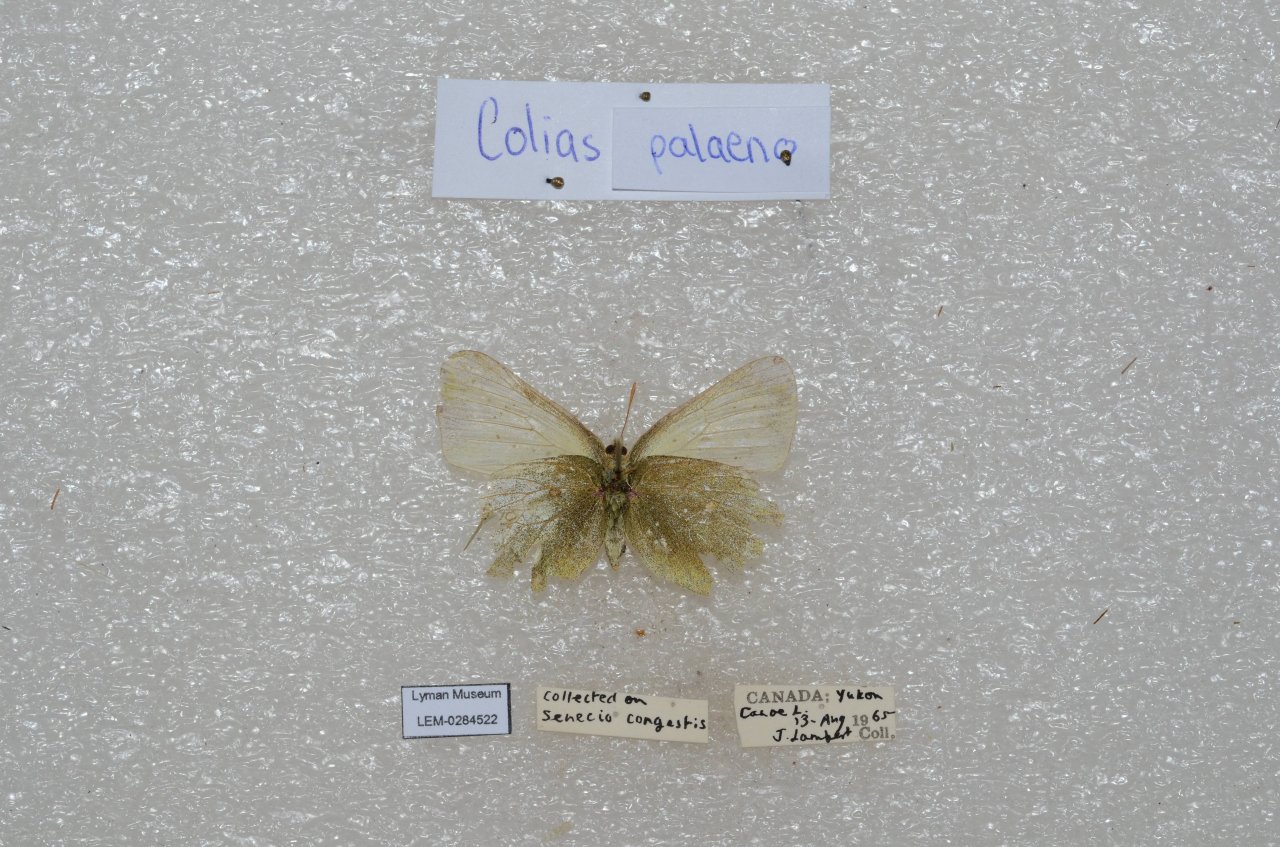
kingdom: Animalia
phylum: Arthropoda
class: Insecta
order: Lepidoptera
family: Pieridae
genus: Colias
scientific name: Colias palaeno
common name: Chippewa Sulphur
